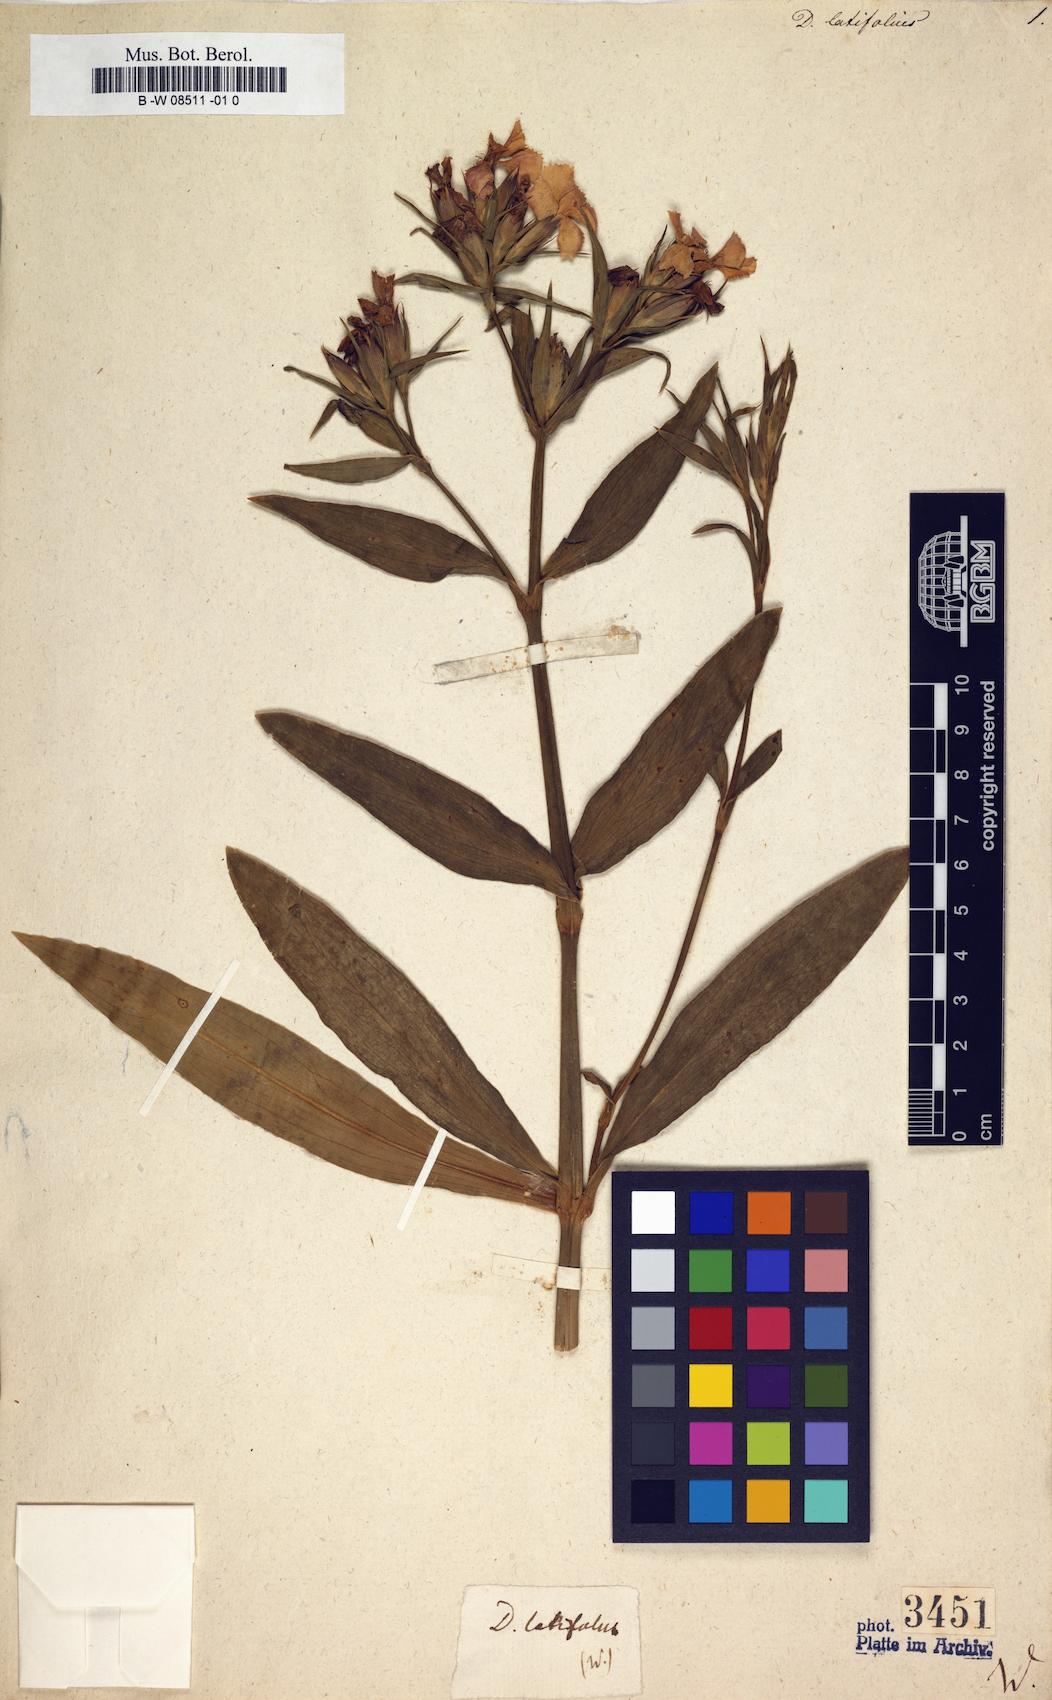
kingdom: Plantae
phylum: Tracheophyta
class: Magnoliopsida
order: Caryophyllales
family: Caryophyllaceae
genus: Dianthus
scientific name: Dianthus barbatus
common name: Sweet-william
